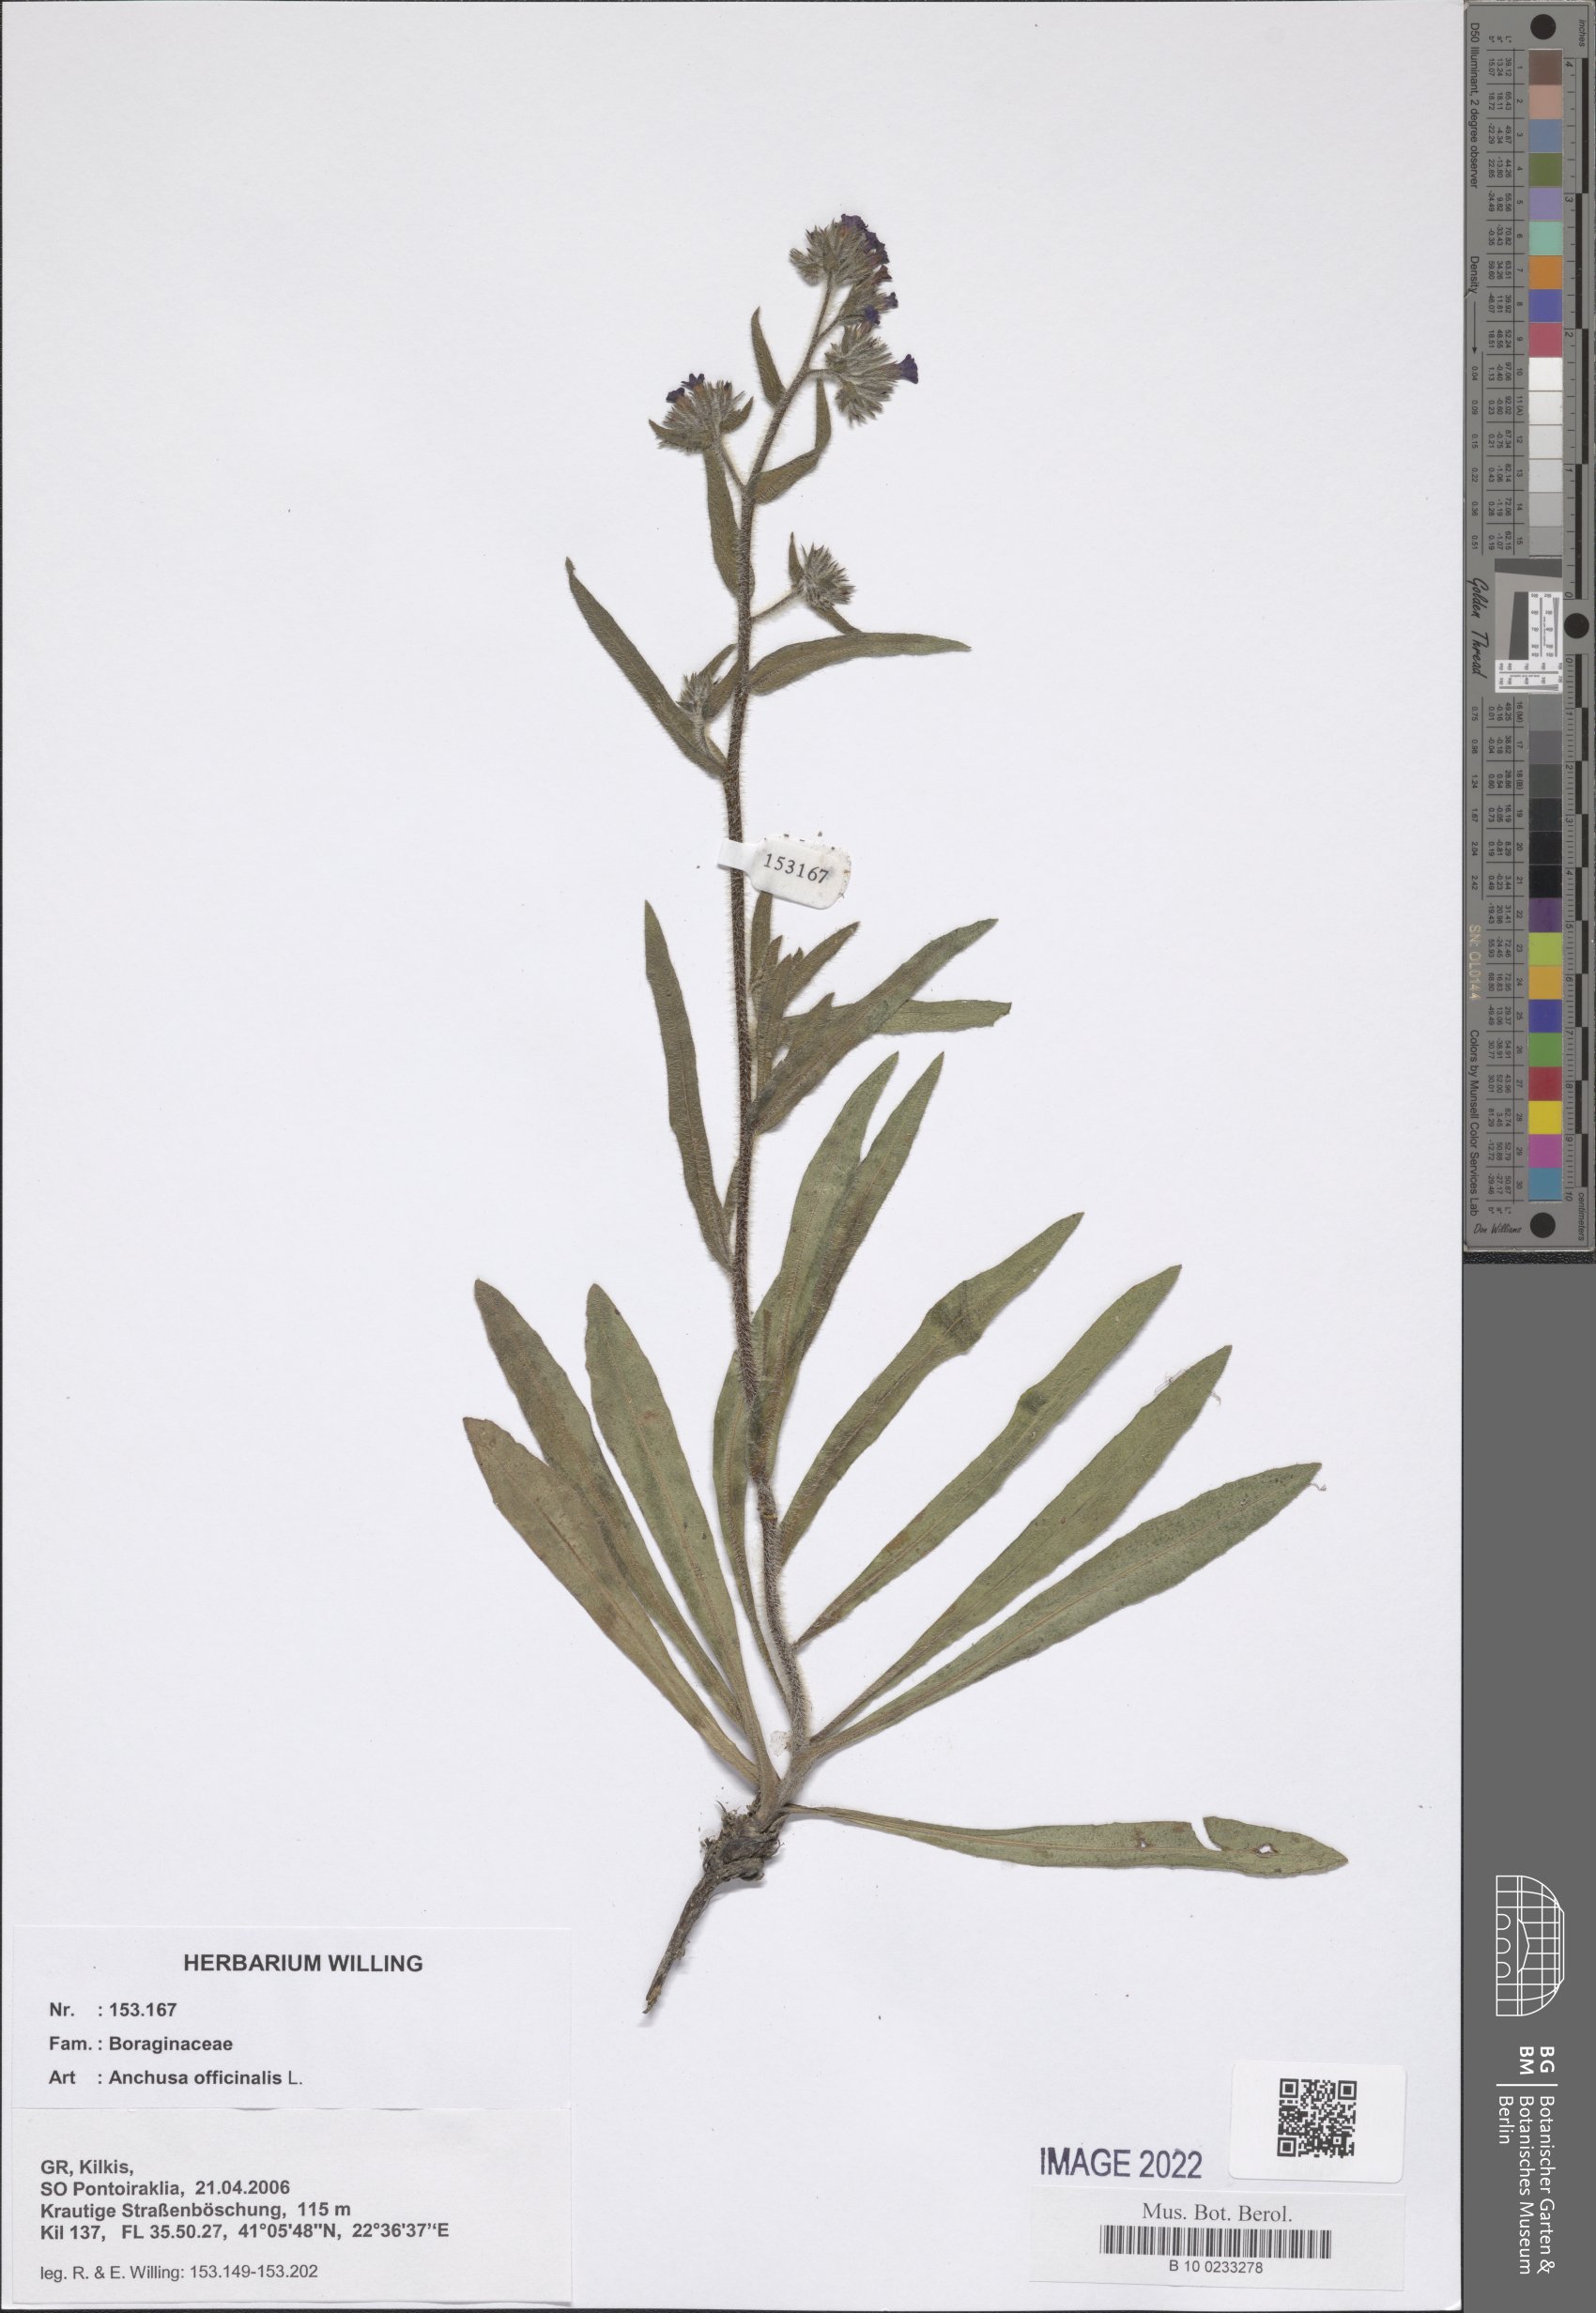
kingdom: Plantae
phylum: Tracheophyta
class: Magnoliopsida
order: Boraginales
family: Boraginaceae
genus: Anchusa
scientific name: Anchusa officinalis
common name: Alkanet
